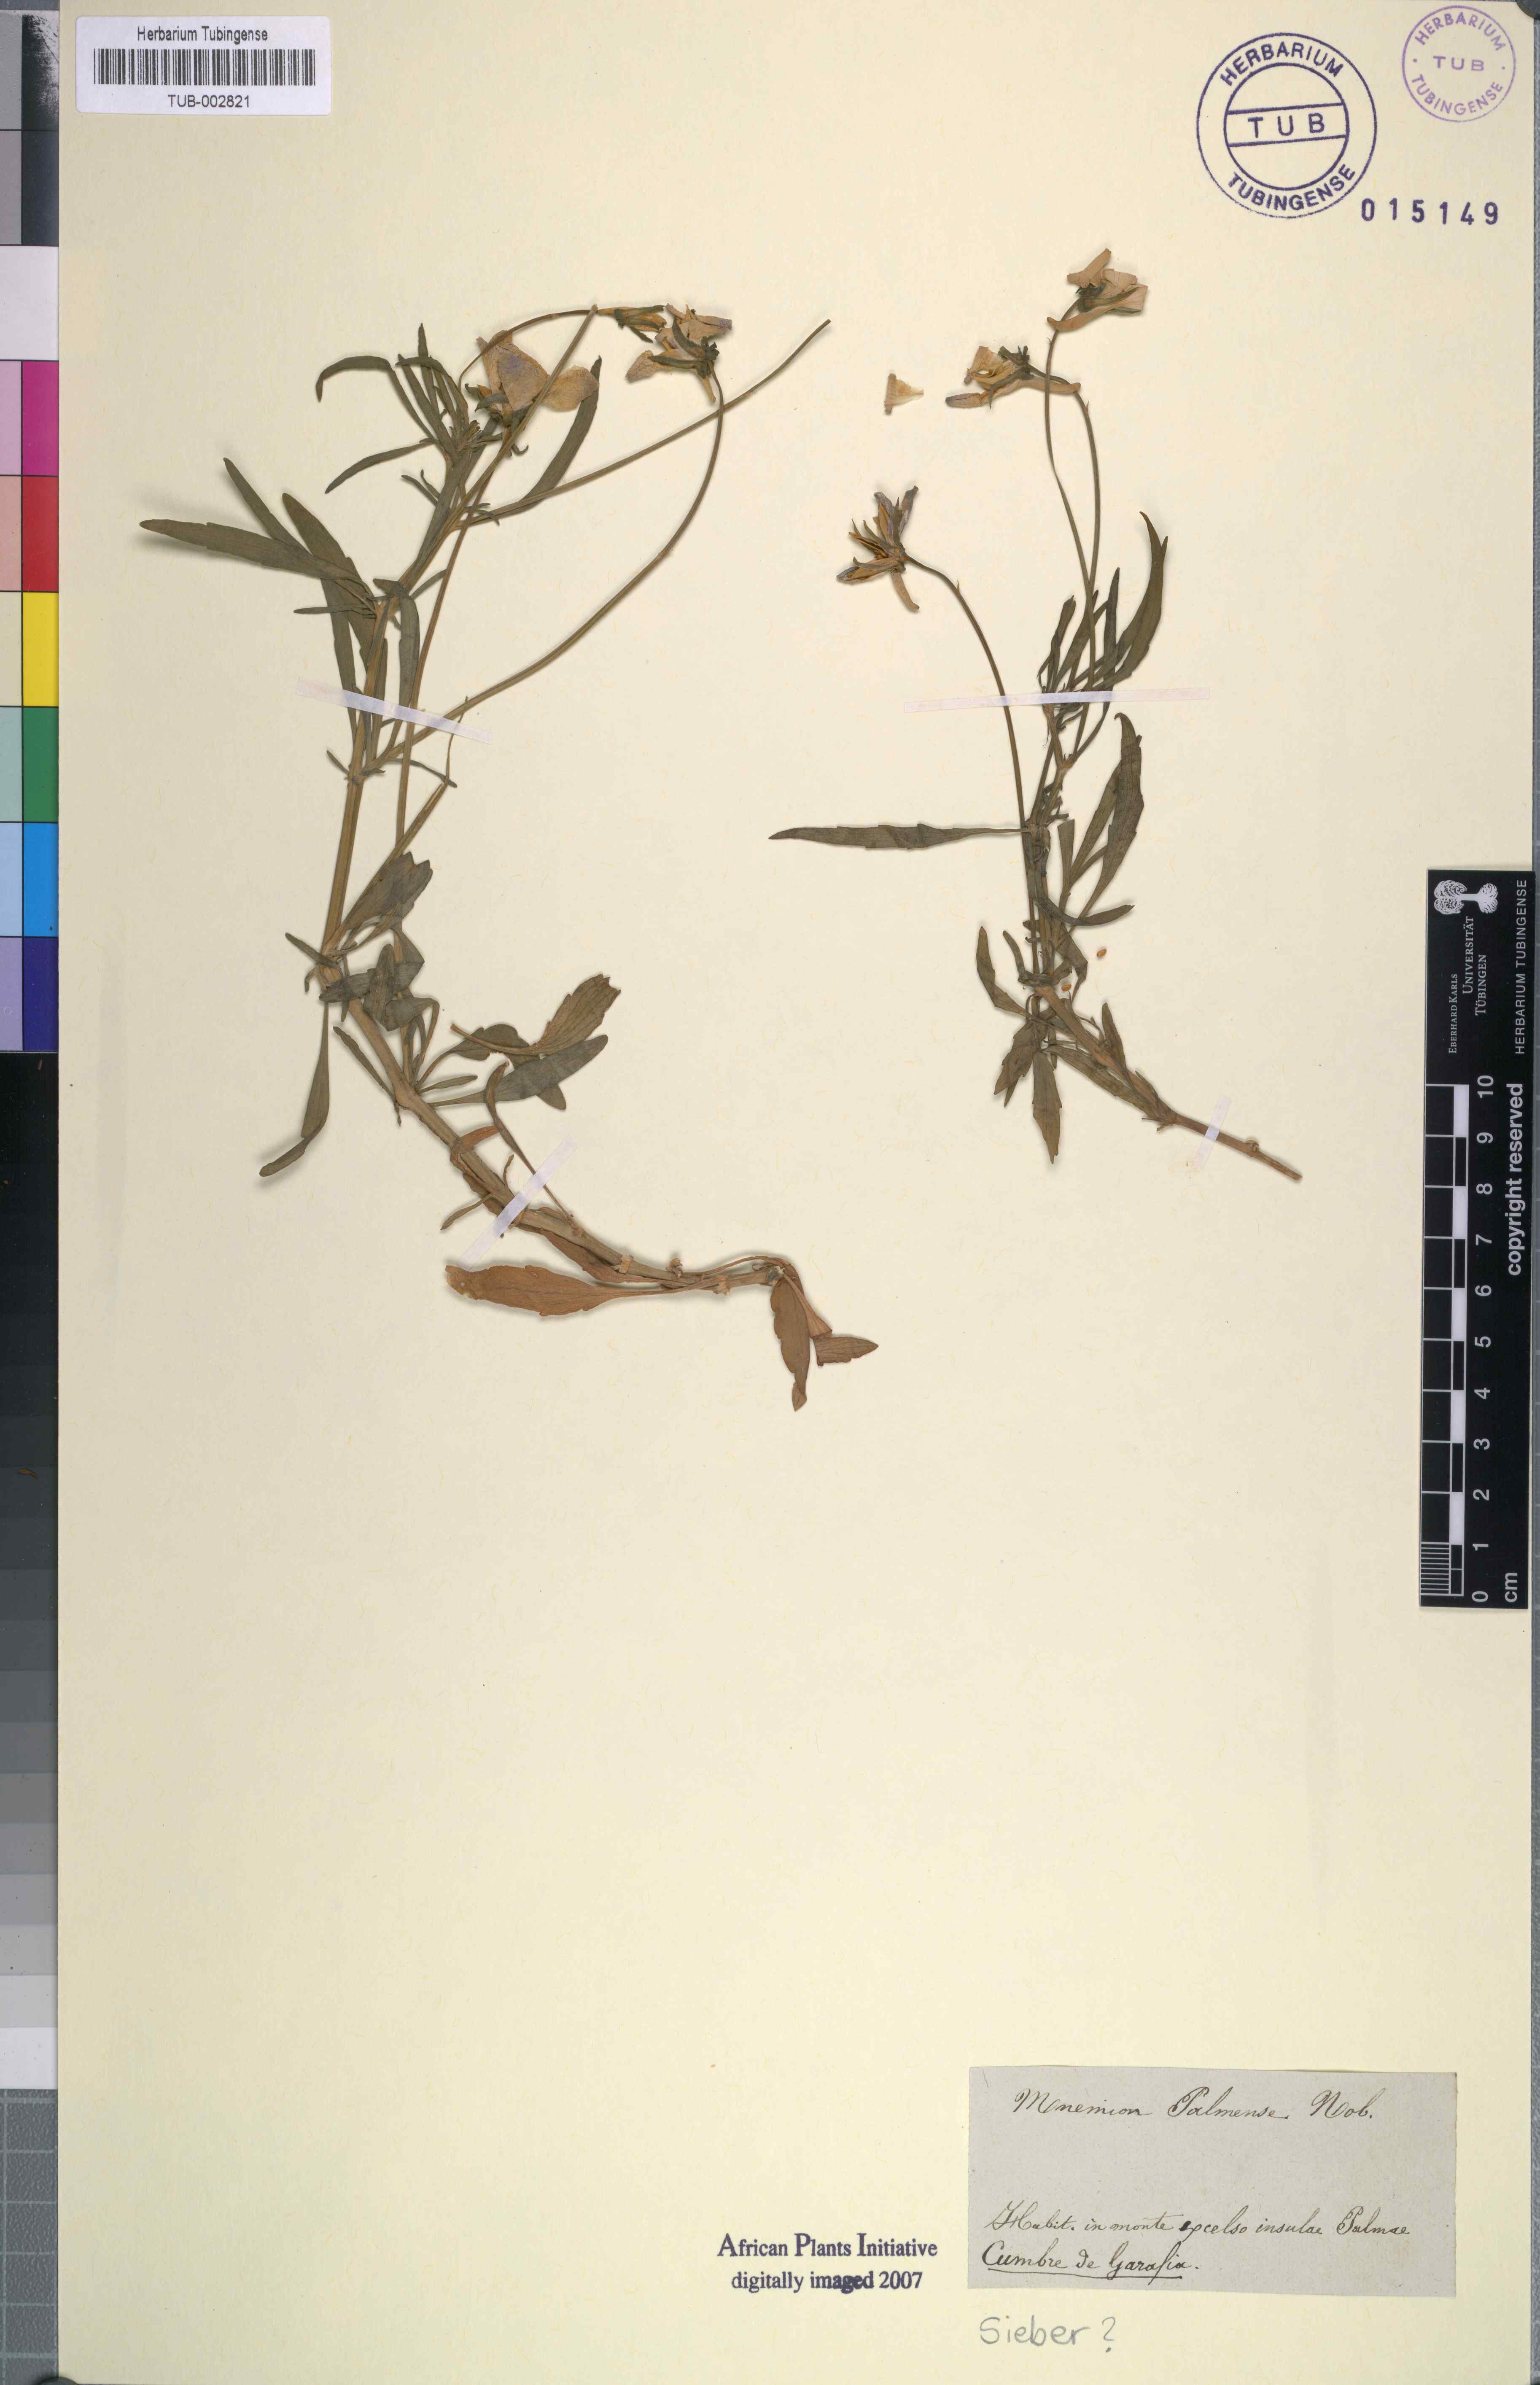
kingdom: Plantae
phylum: Tracheophyta
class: Magnoliopsida
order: Malpighiales
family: Violaceae
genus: Viola
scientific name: Viola palmensis
